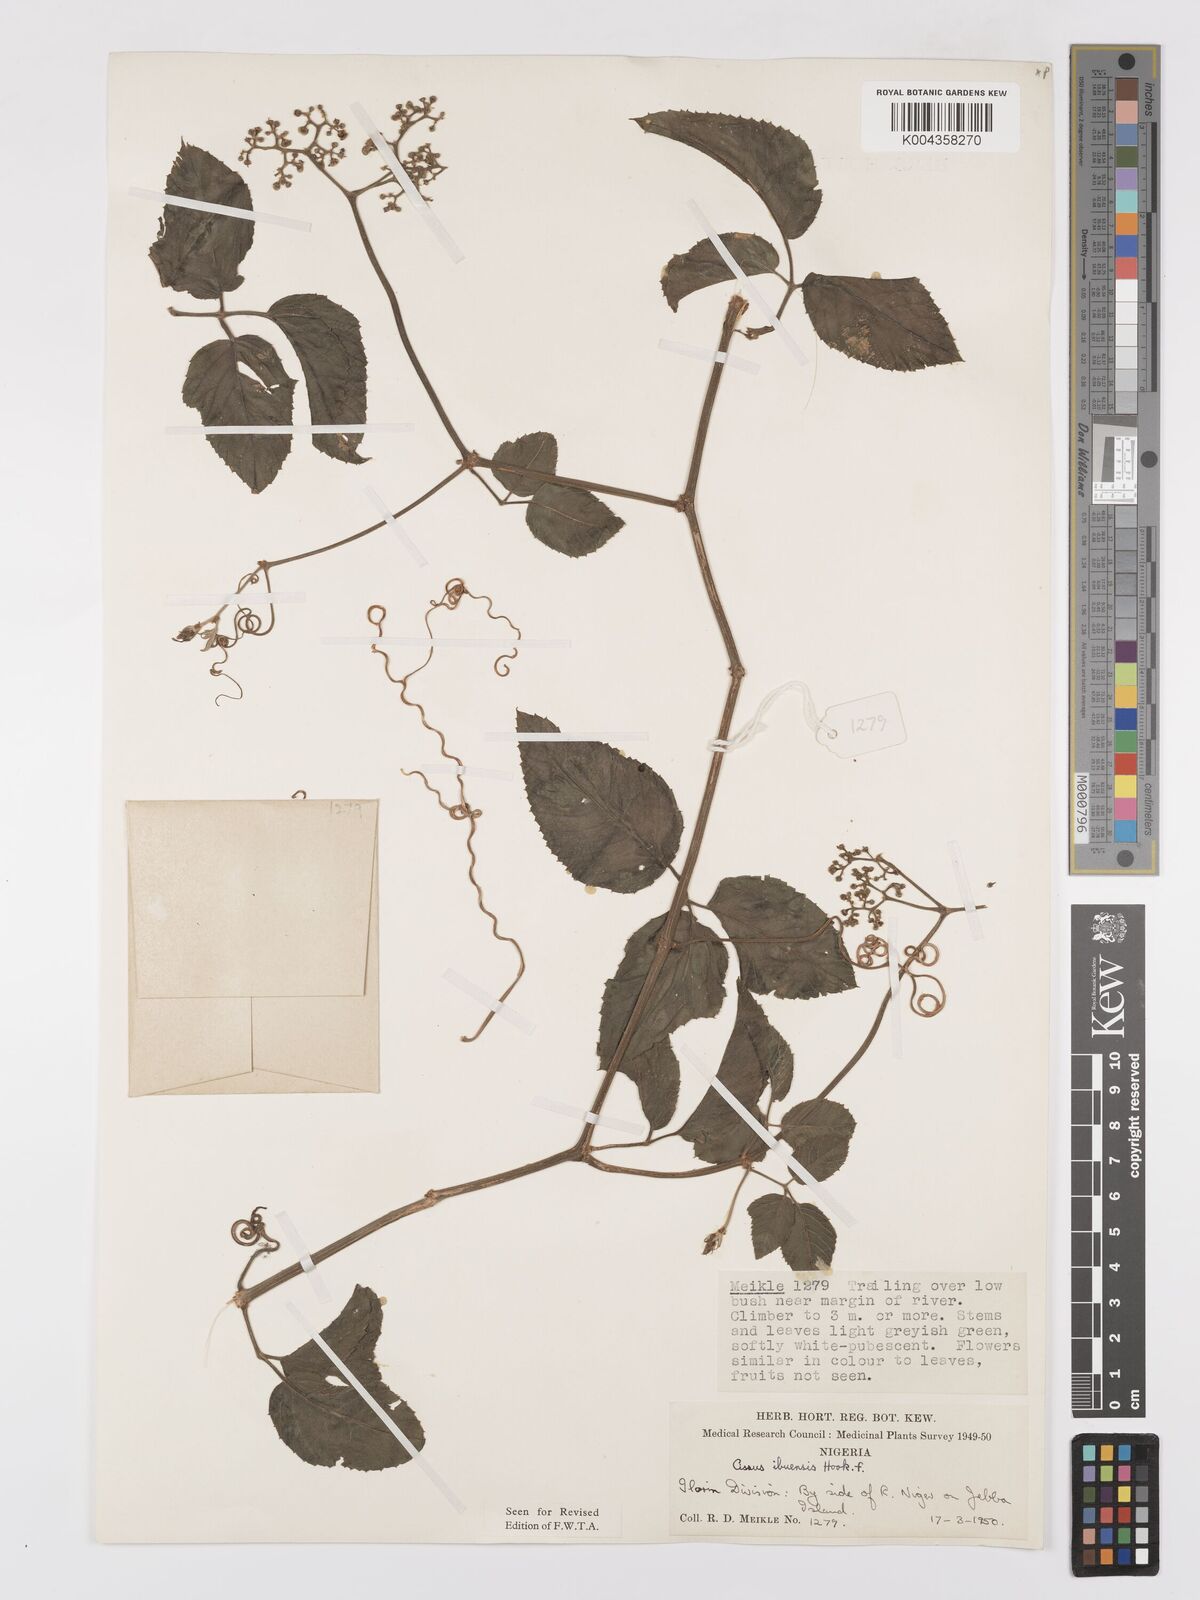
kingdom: Plantae
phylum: Tracheophyta
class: Magnoliopsida
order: Vitales
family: Vitaceae
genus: Afrocayratia
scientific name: Afrocayratia ibuensis
